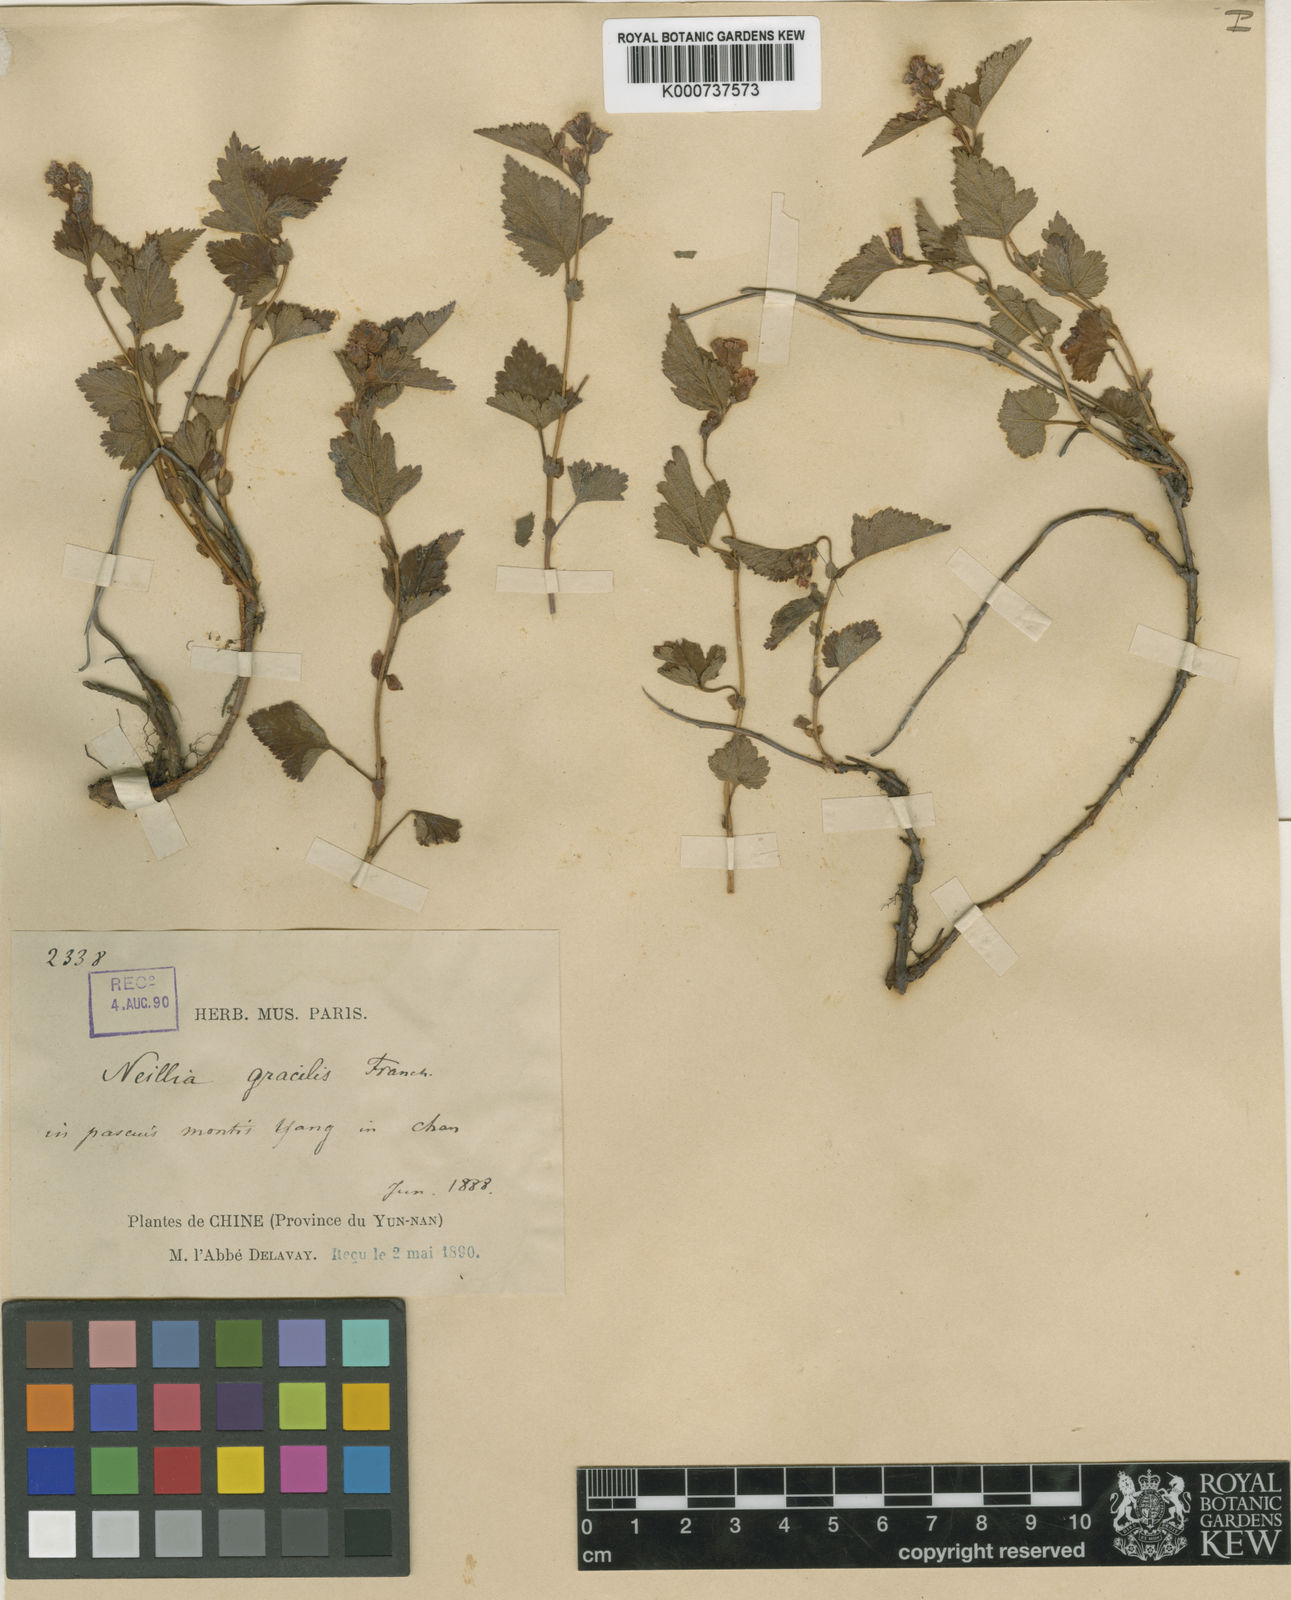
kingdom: Plantae
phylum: Tracheophyta
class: Magnoliopsida
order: Rosales
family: Rosaceae
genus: Neillia
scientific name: Neillia gracilis
